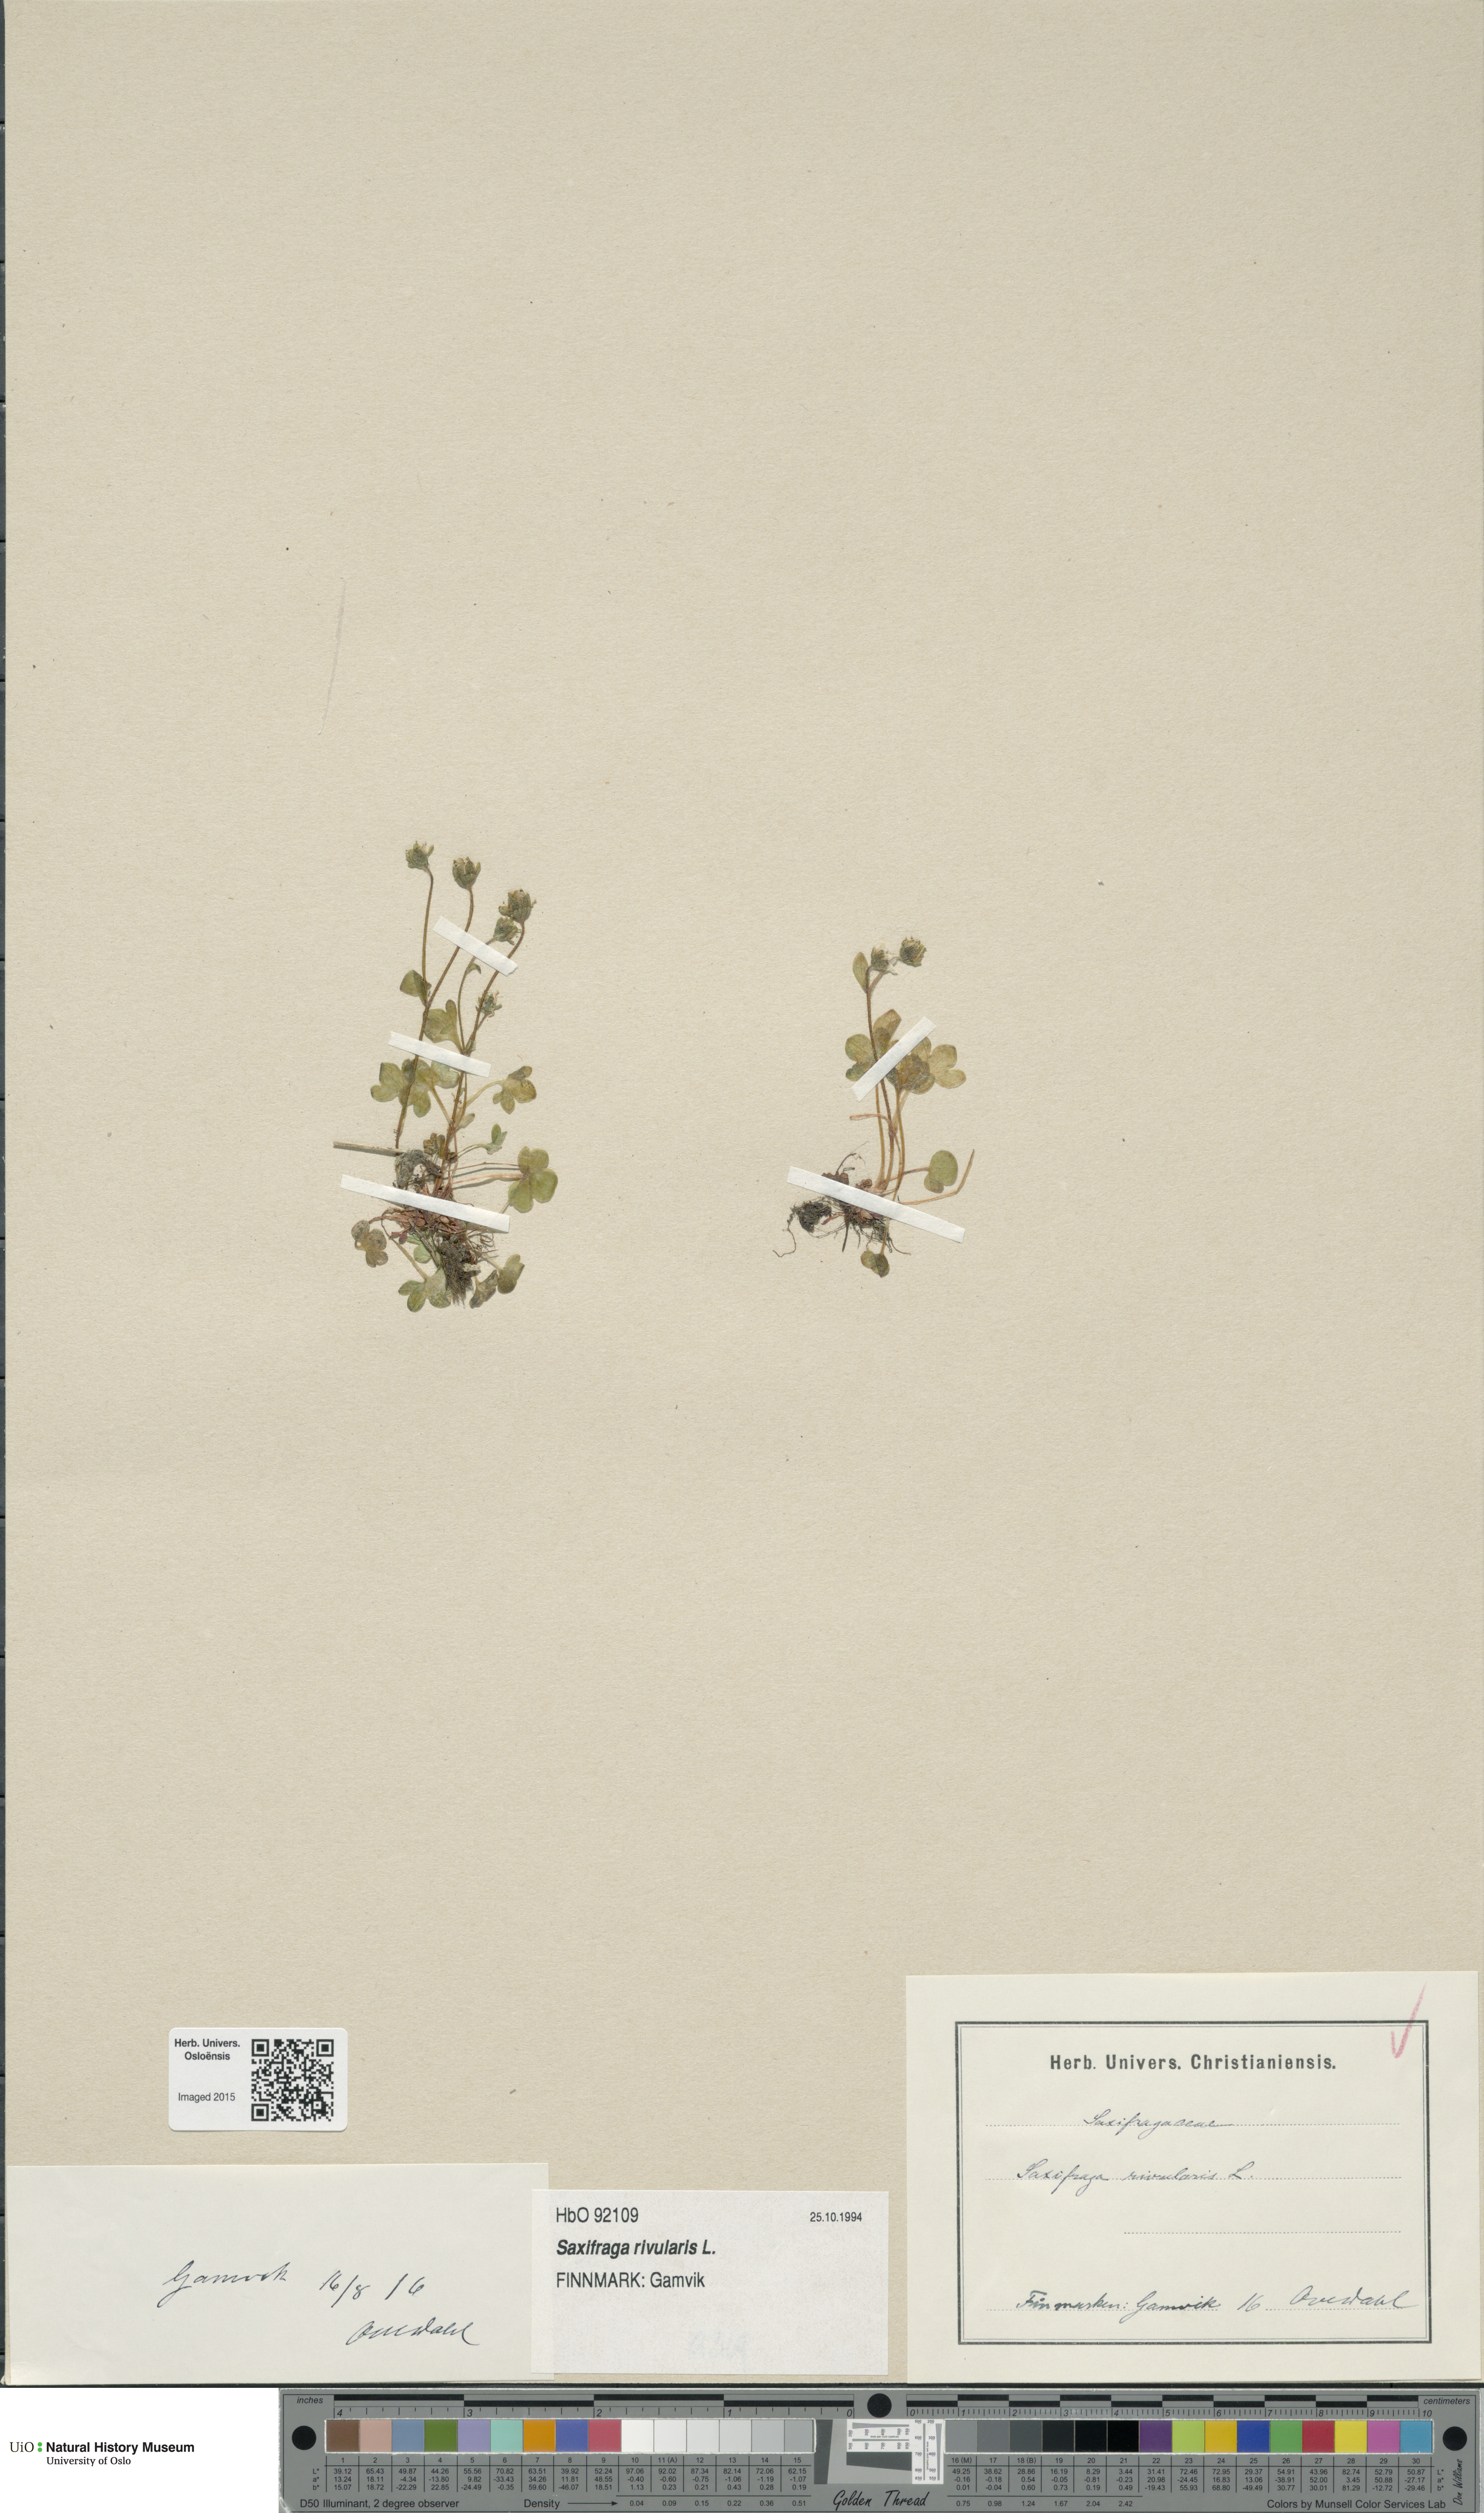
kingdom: Plantae
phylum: Tracheophyta
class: Magnoliopsida
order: Saxifragales
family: Saxifragaceae
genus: Saxifraga
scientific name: Saxifraga rivularis
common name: Highland saxifrage
